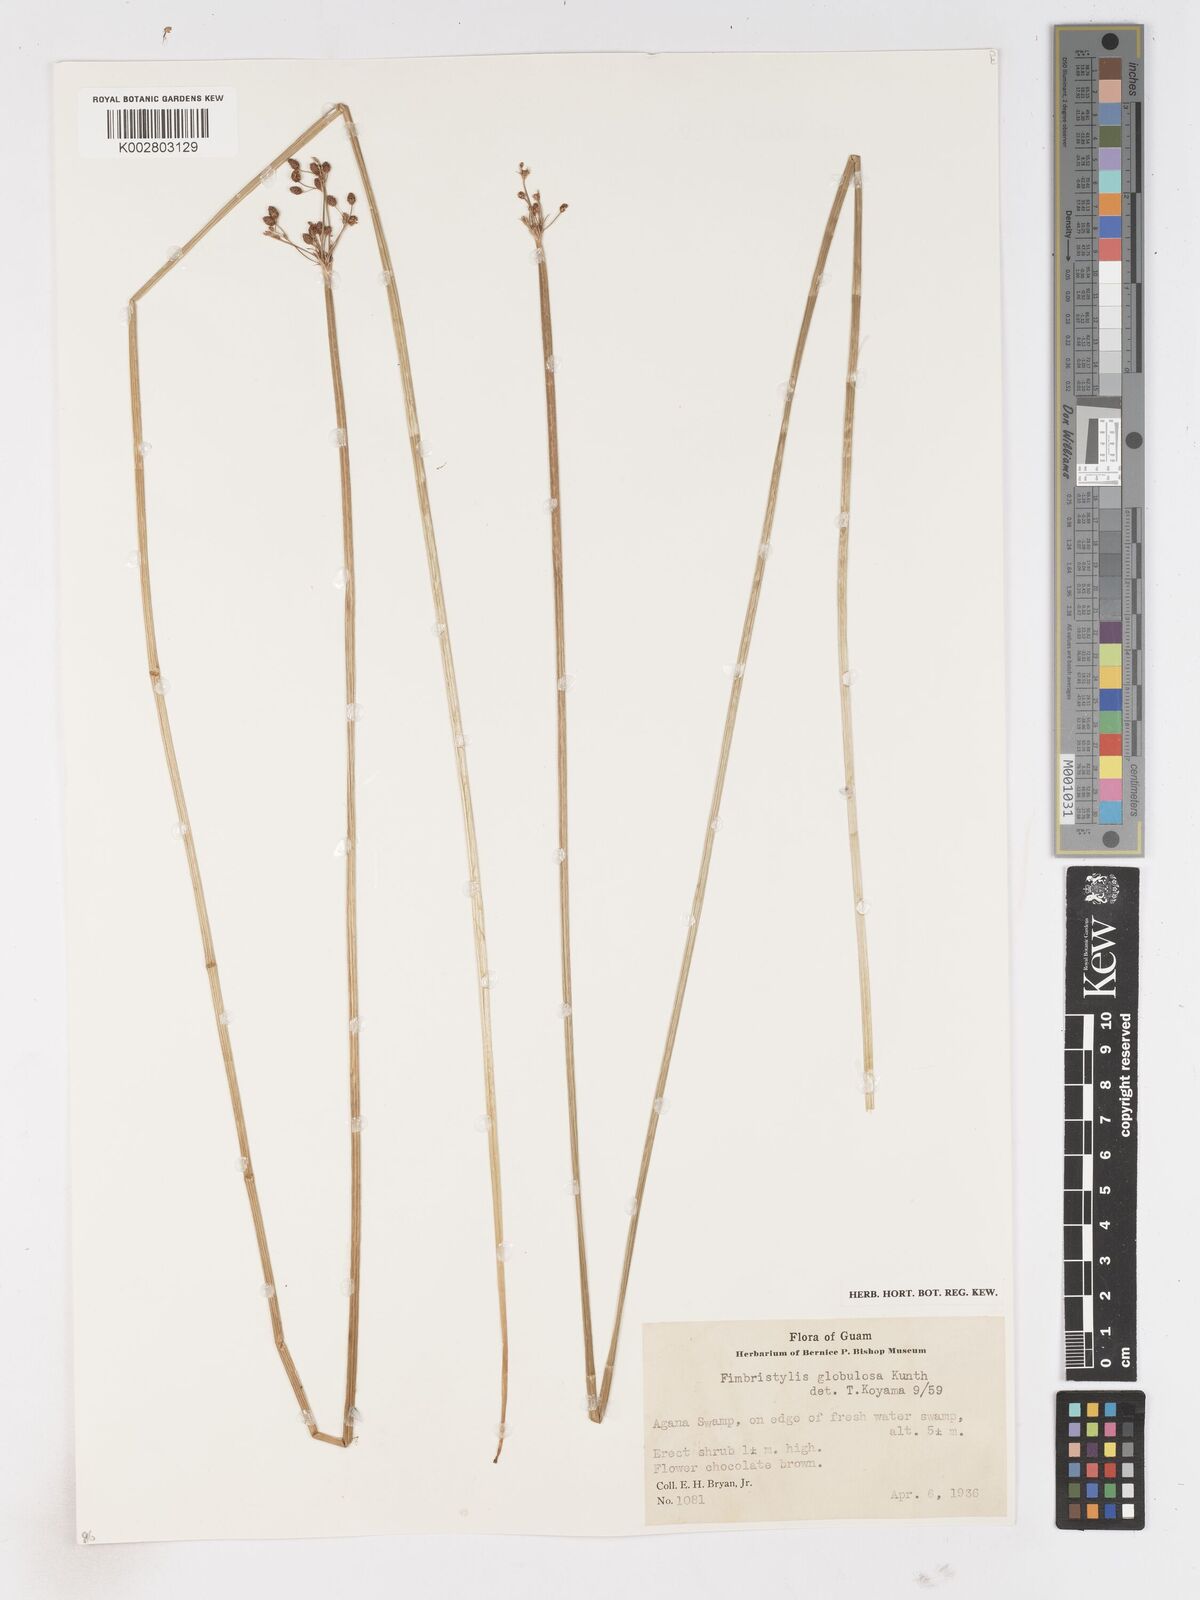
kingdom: Plantae
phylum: Tracheophyta
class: Liliopsida
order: Poales
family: Cyperaceae
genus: Fimbristylis
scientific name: Fimbristylis umbellaris
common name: Globular fimbristylis
